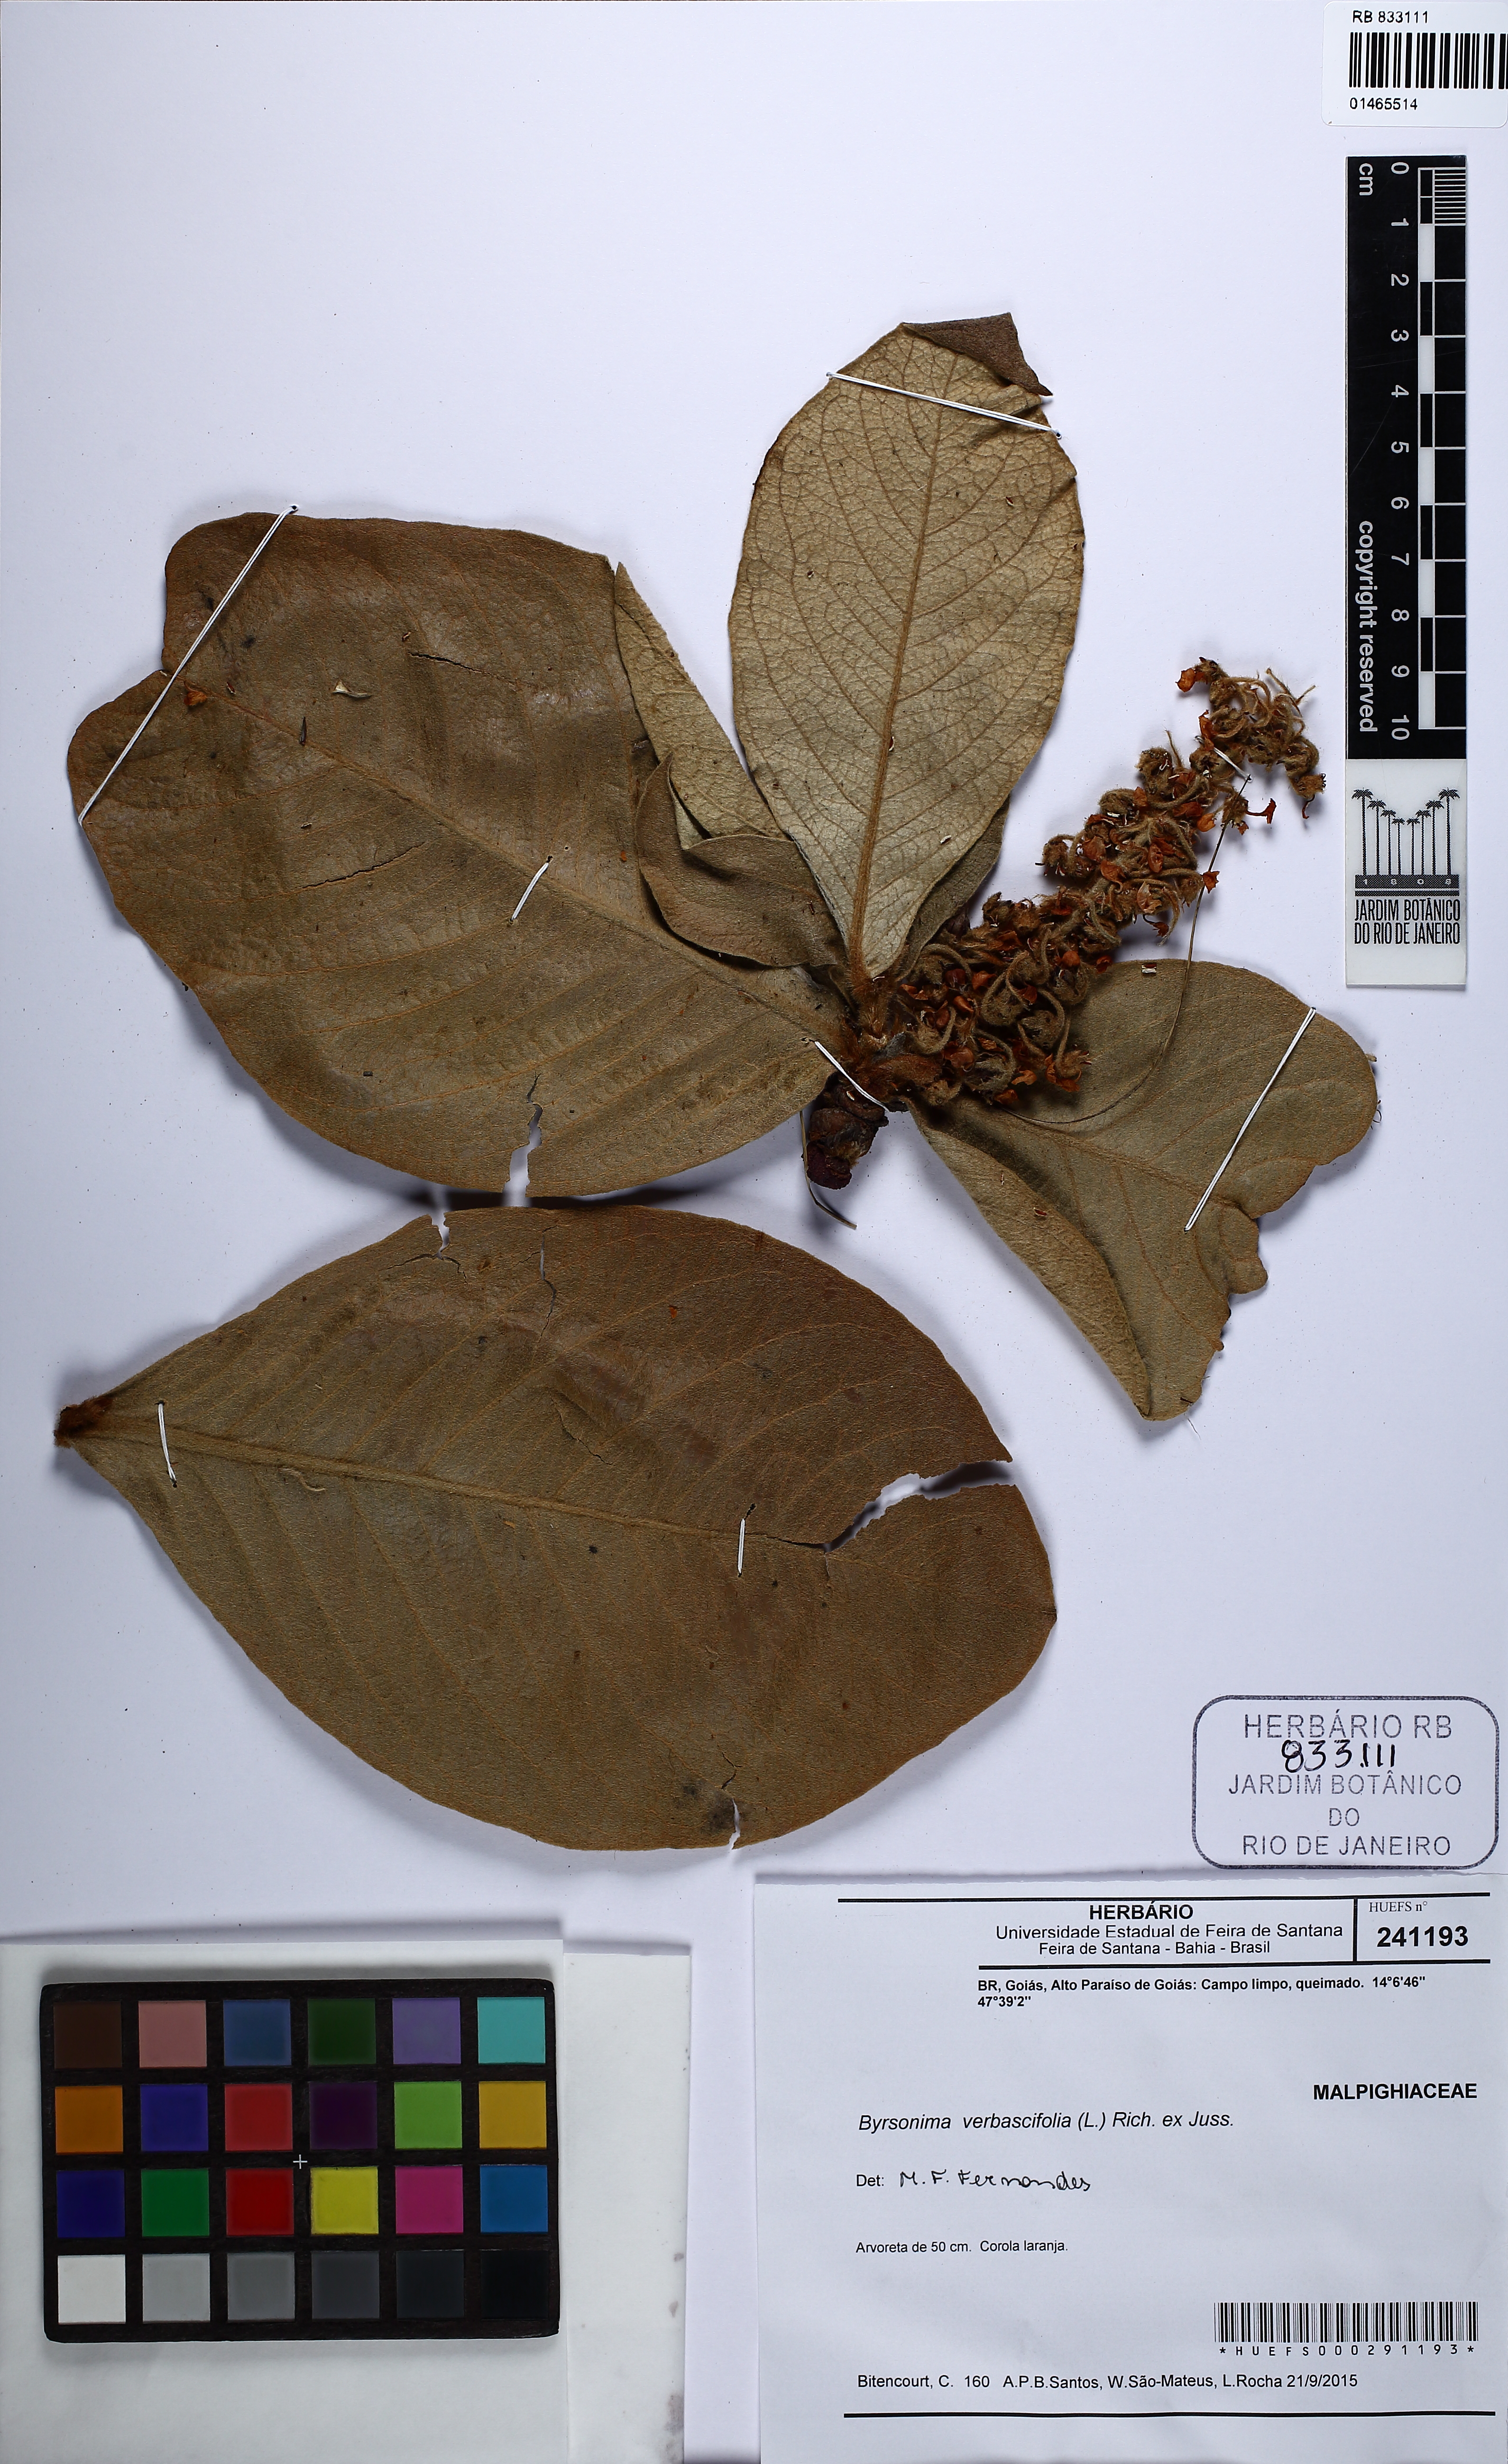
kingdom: Plantae
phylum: Tracheophyta
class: Magnoliopsida
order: Malpighiales
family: Malpighiaceae
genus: Byrsonima
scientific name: Byrsonima verbascifolia
